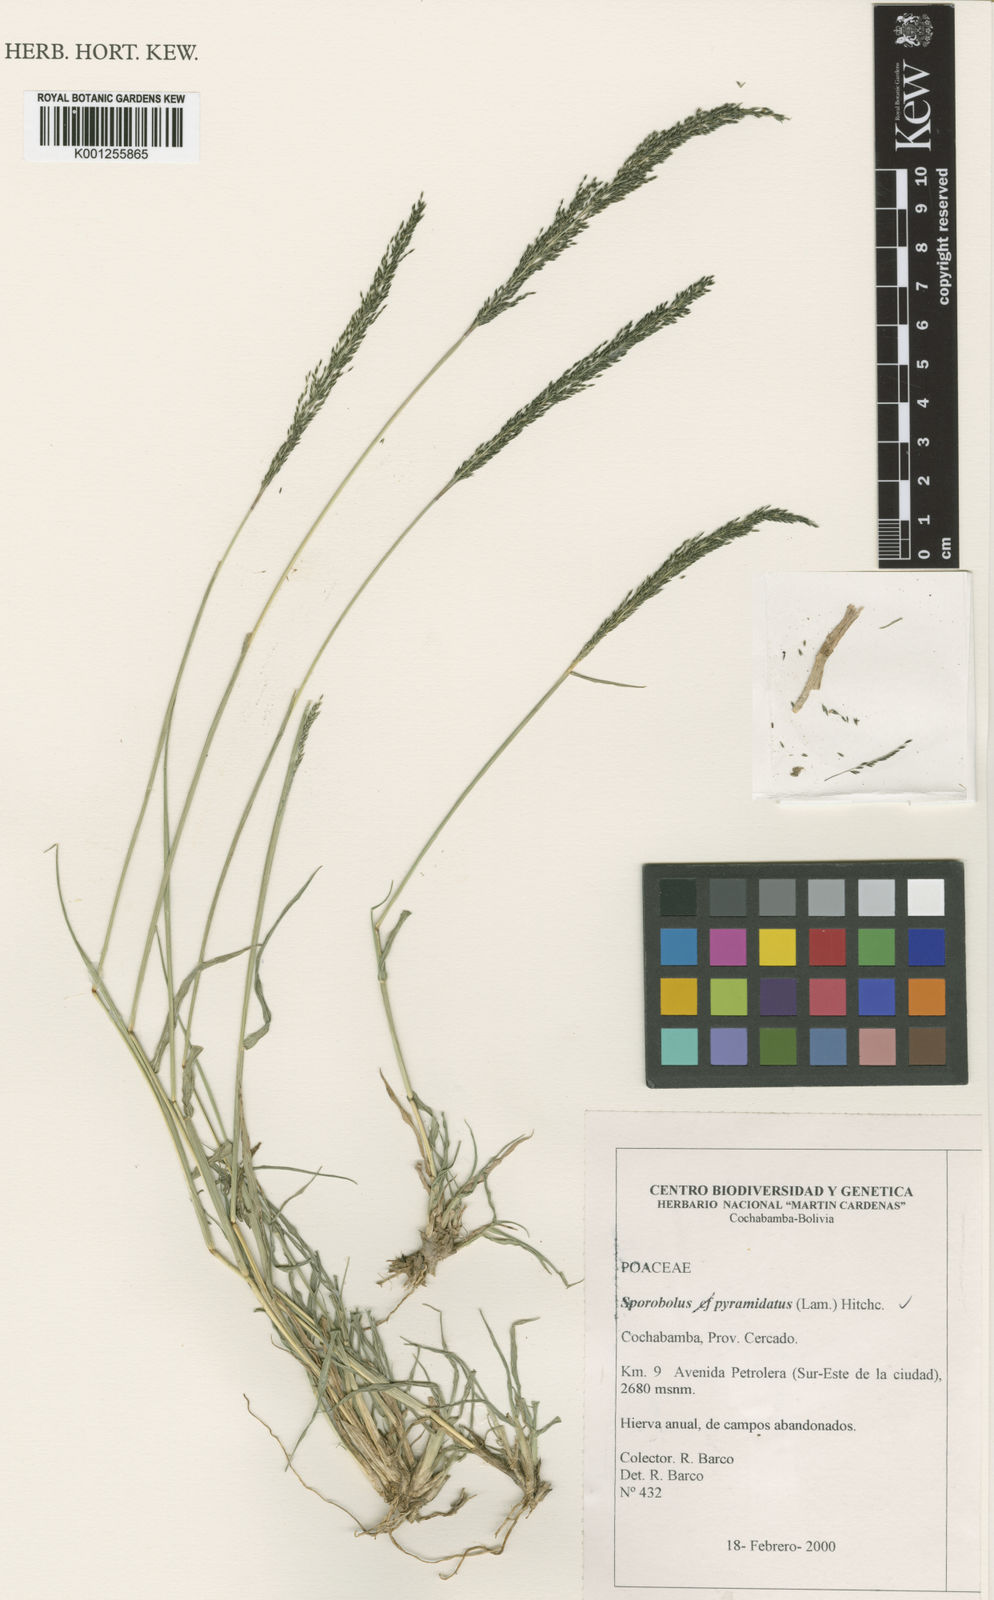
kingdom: Plantae
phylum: Tracheophyta
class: Liliopsida
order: Poales
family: Poaceae
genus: Sporobolus
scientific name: Sporobolus pyramidatus
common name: Whorled dropseed
